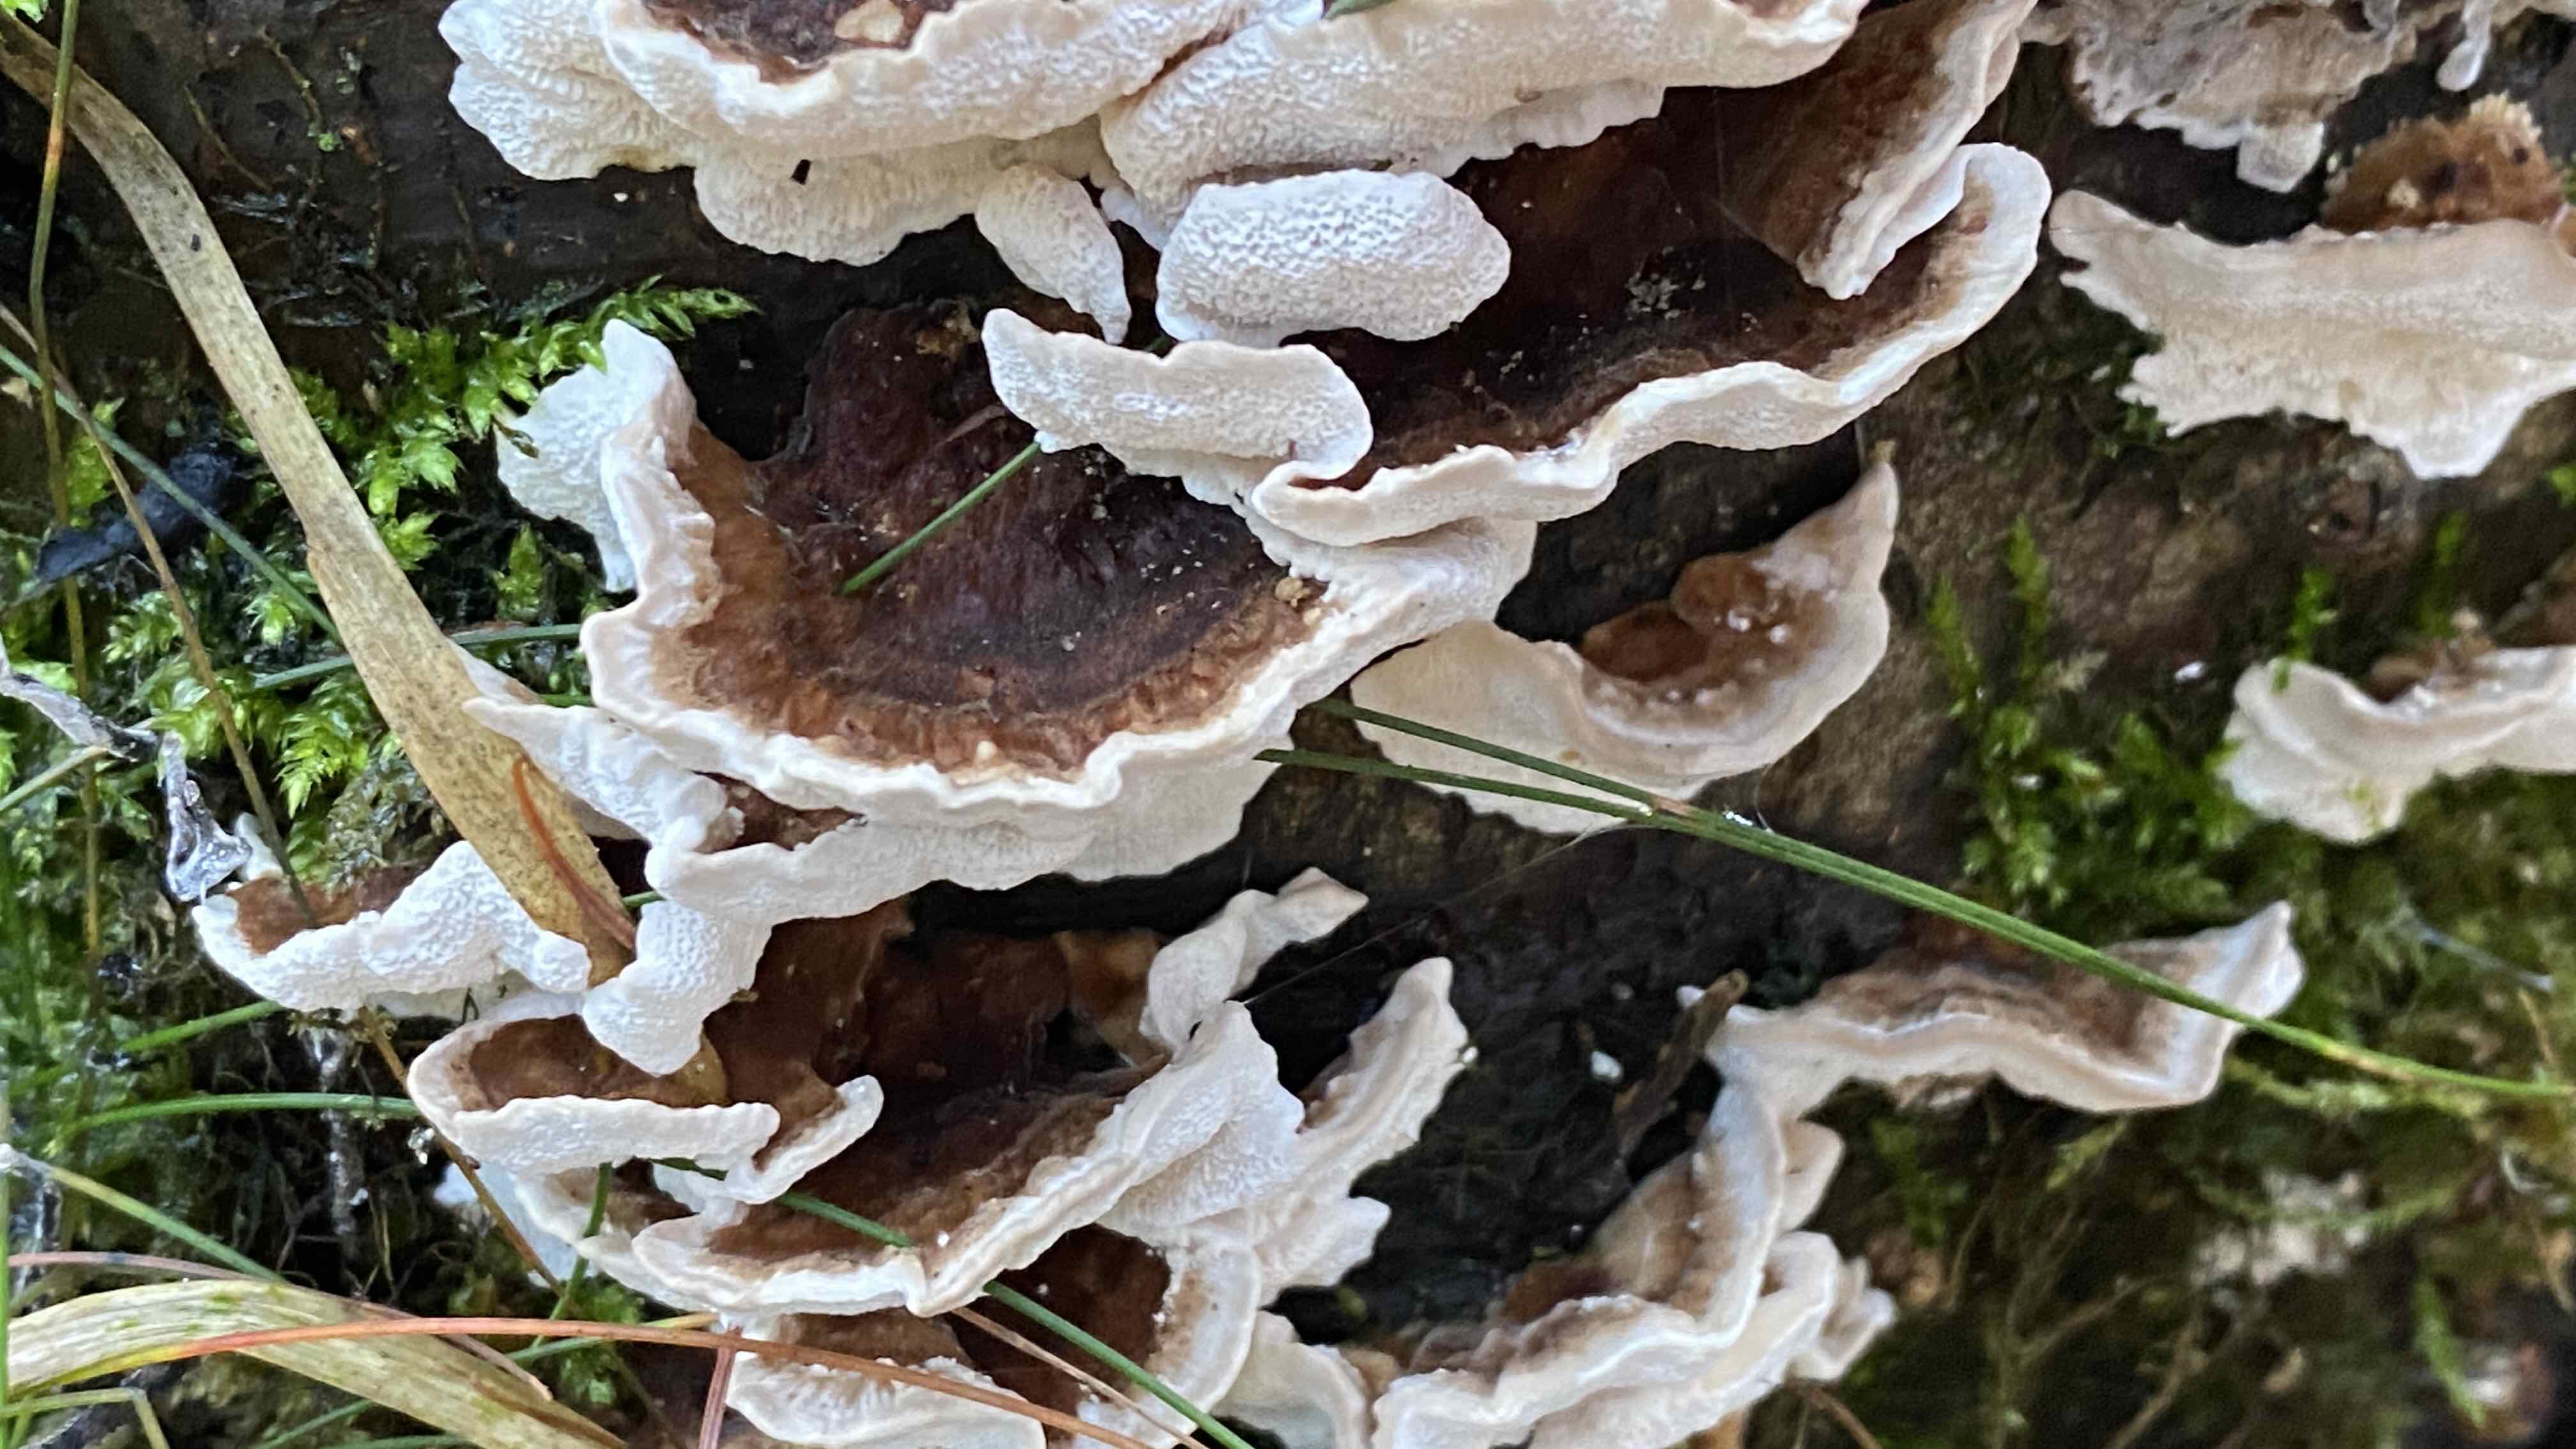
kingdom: Fungi
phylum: Basidiomycota
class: Agaricomycetes
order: Polyporales
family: Polyporaceae
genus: Trametes
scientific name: Trametes versicolor
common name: broget læderporesvamp
